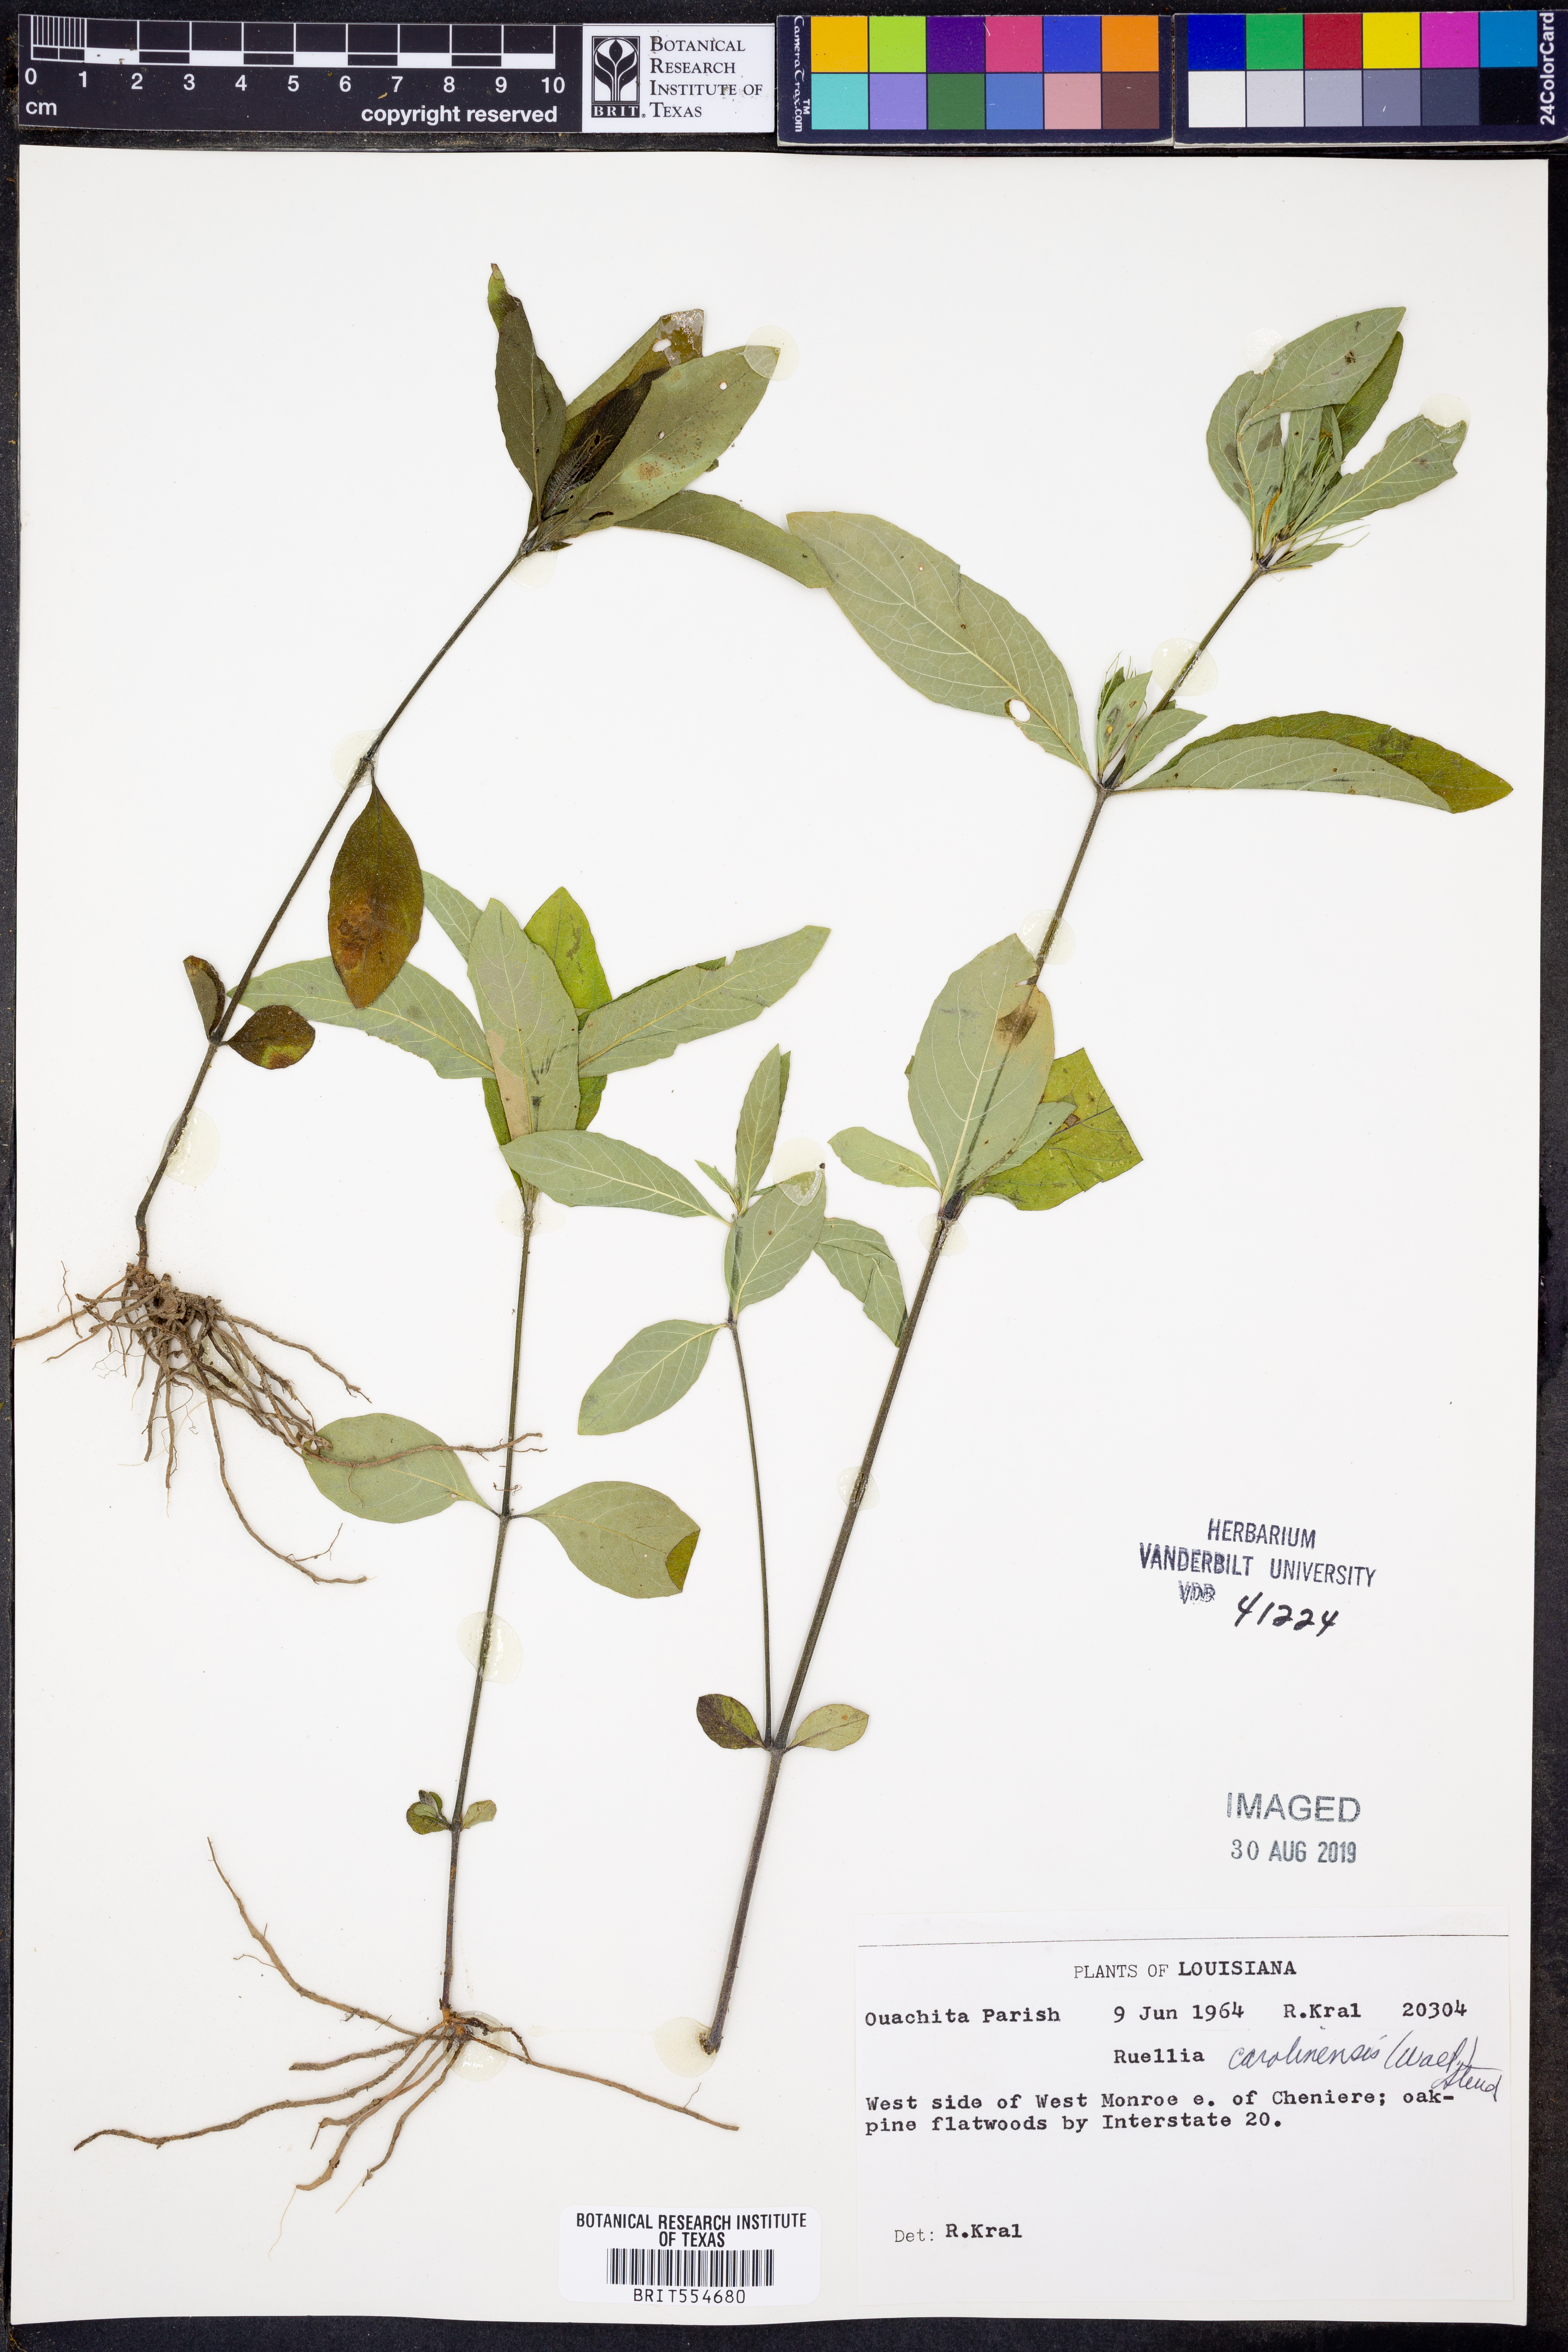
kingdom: Plantae
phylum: Tracheophyta
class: Magnoliopsida
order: Lamiales
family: Acanthaceae
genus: Ruellia
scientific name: Ruellia caroliniensis
